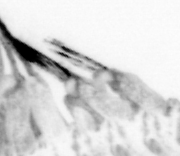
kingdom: Animalia
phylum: Annelida
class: Polychaeta
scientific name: Polychaeta
